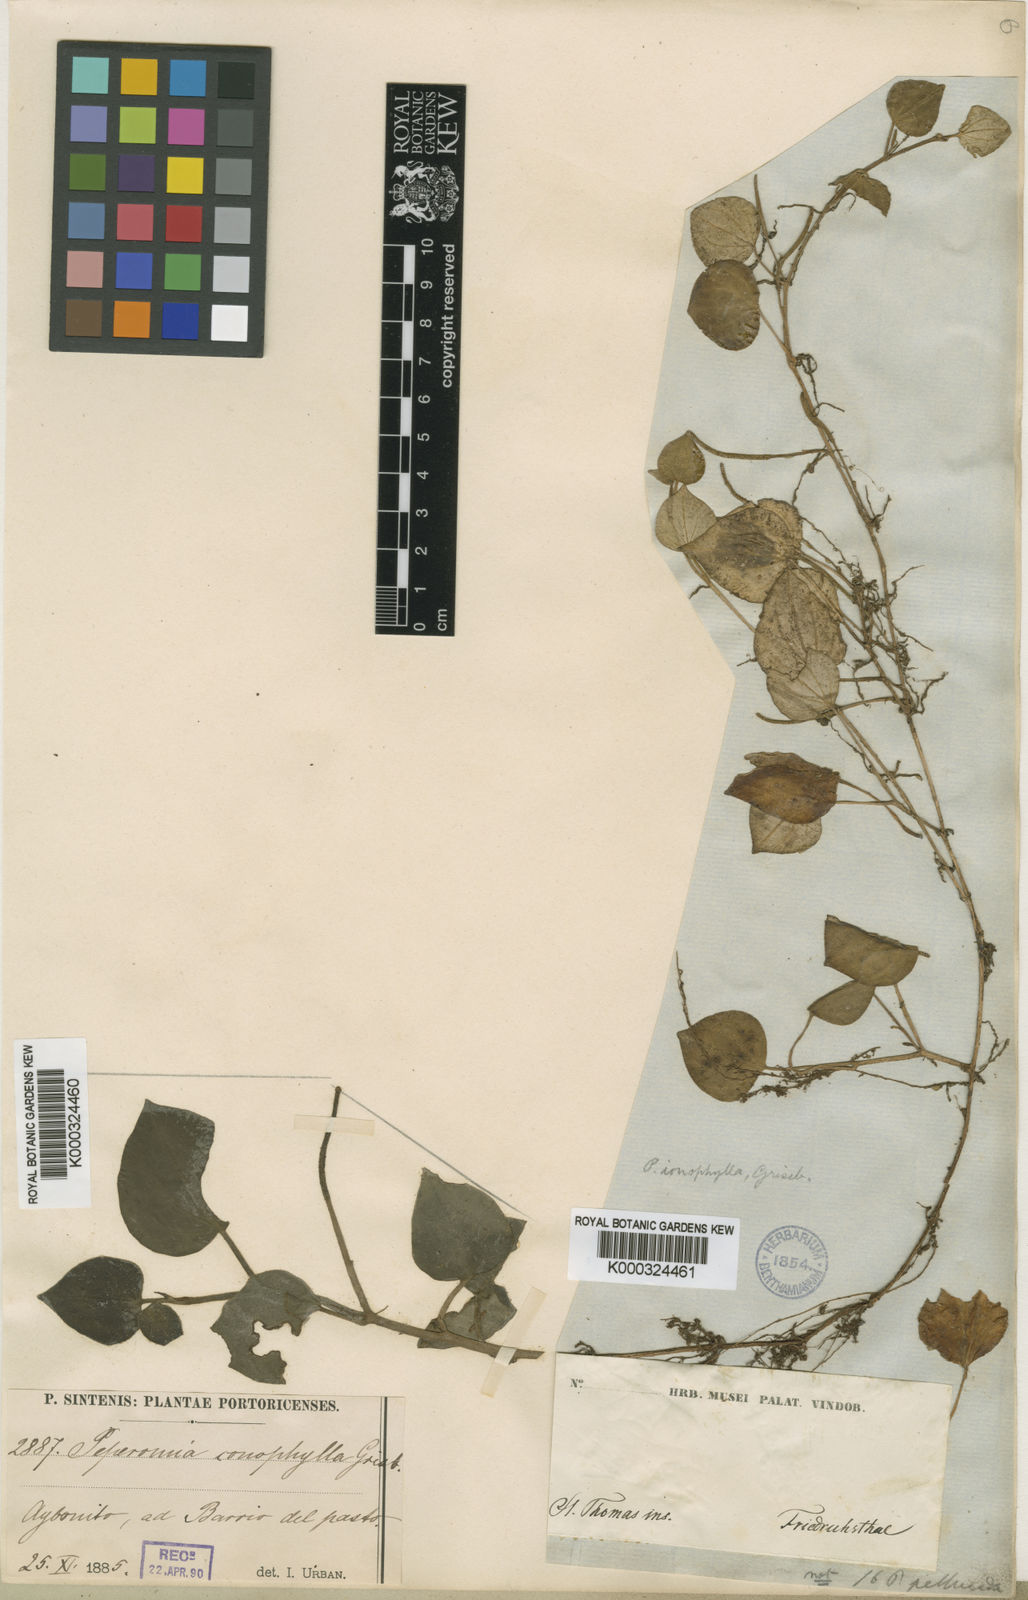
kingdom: Plantae
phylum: Tracheophyta
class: Magnoliopsida
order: Piperales
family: Piperaceae
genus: Peperomia
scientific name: Peperomia serpens
